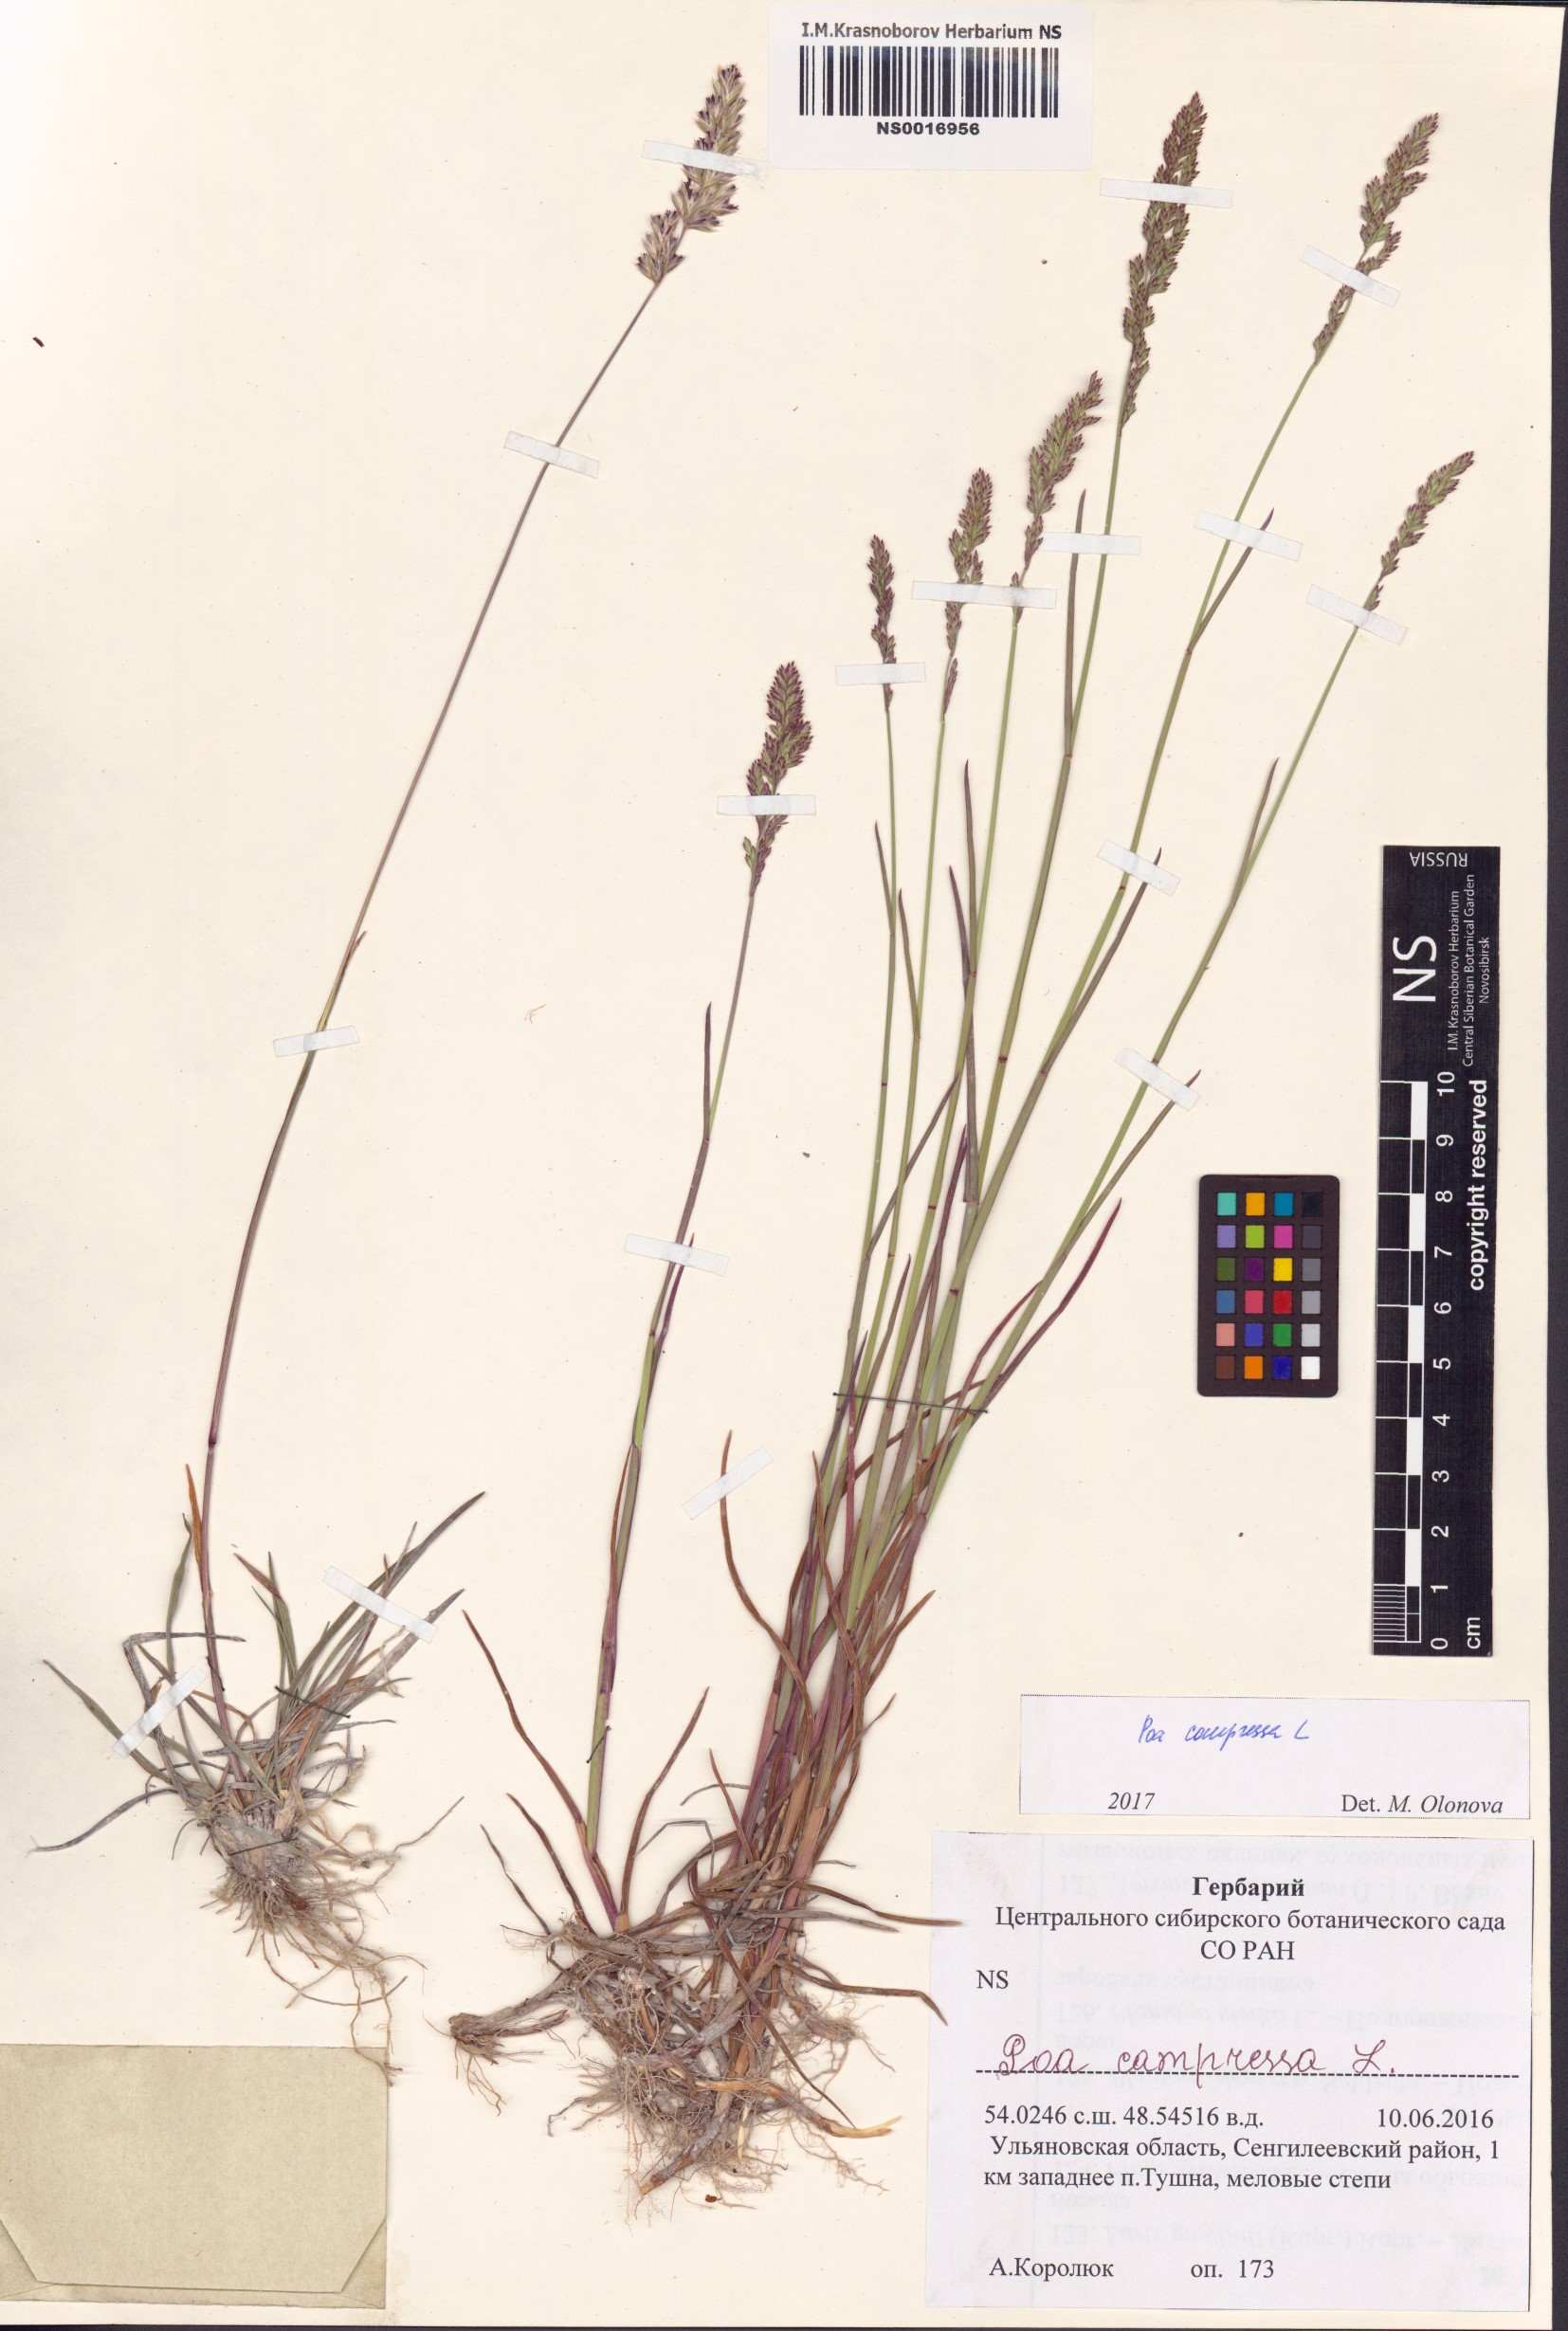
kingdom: Plantae
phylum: Tracheophyta
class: Liliopsida
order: Poales
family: Poaceae
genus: Poa
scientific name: Poa compressa
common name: Canada bluegrass
